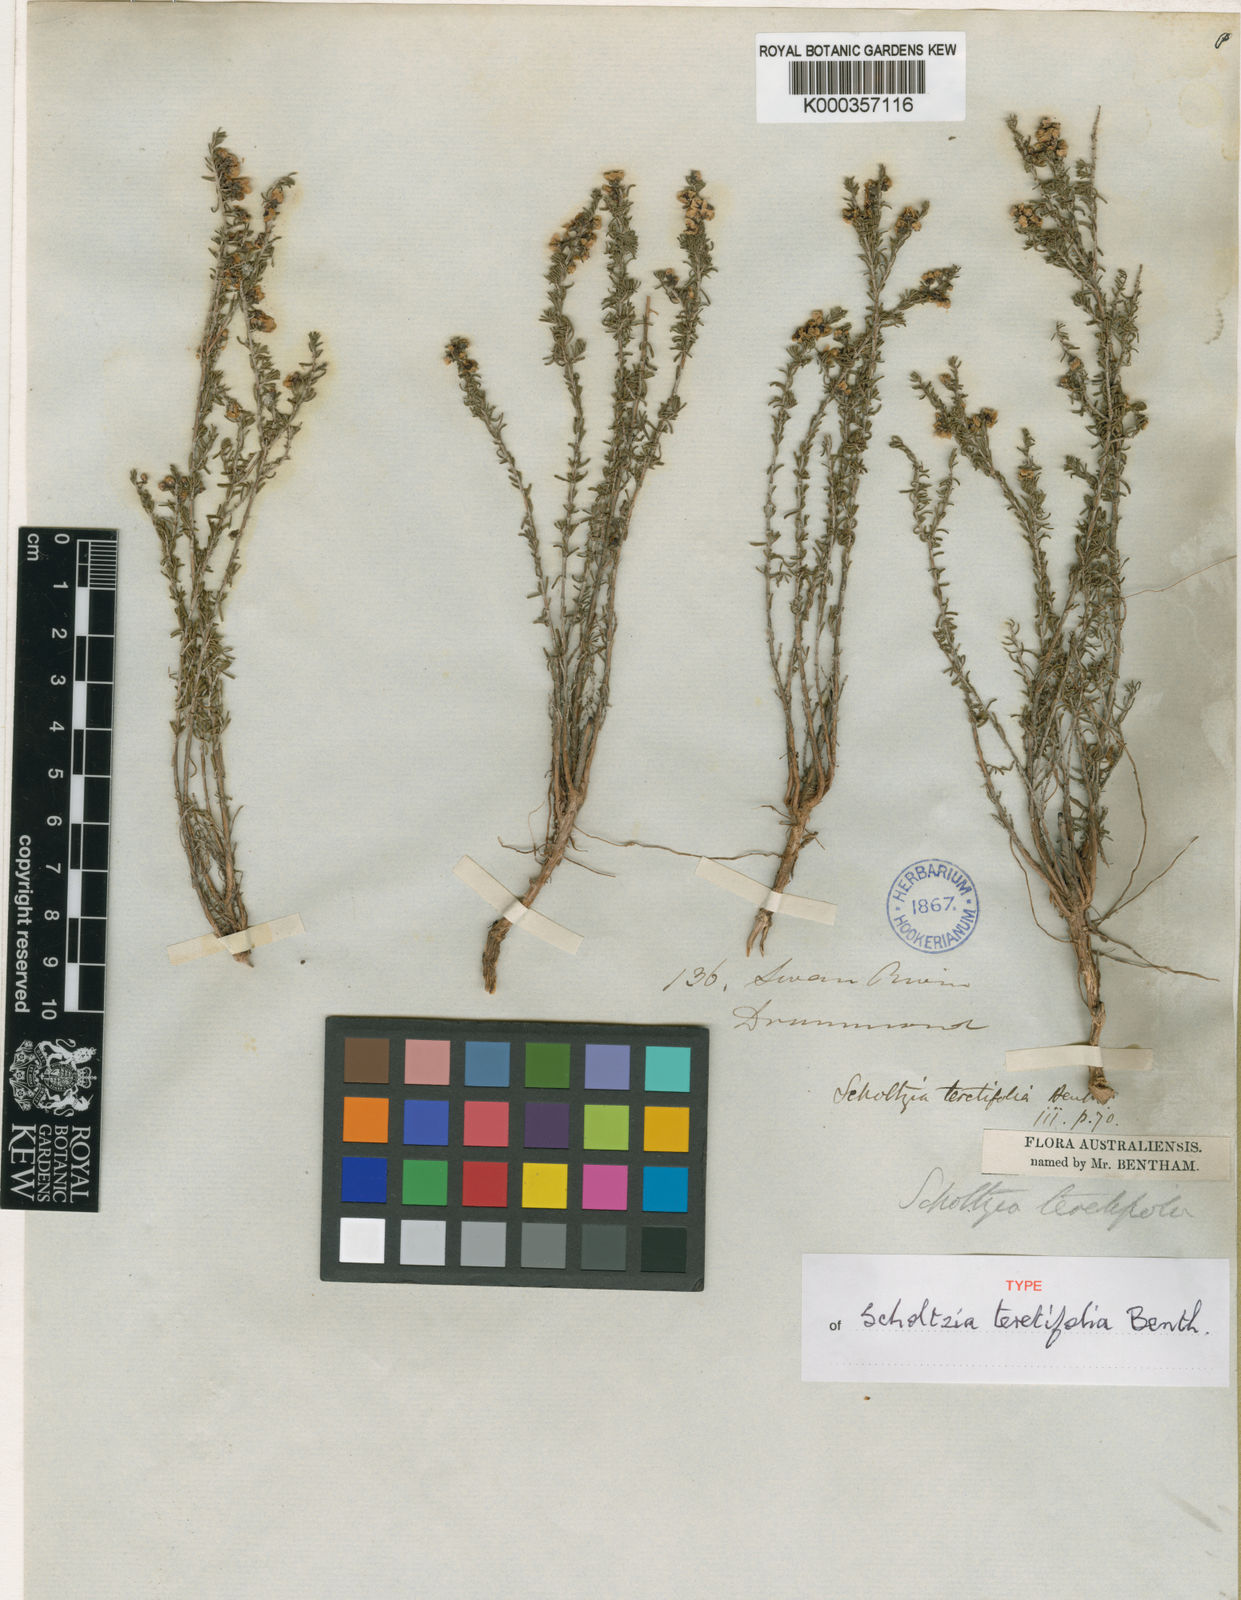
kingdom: Plantae
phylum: Tracheophyta
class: Magnoliopsida
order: Myrtales
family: Myrtaceae
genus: Scholtzia
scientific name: Scholtzia teretifolia
